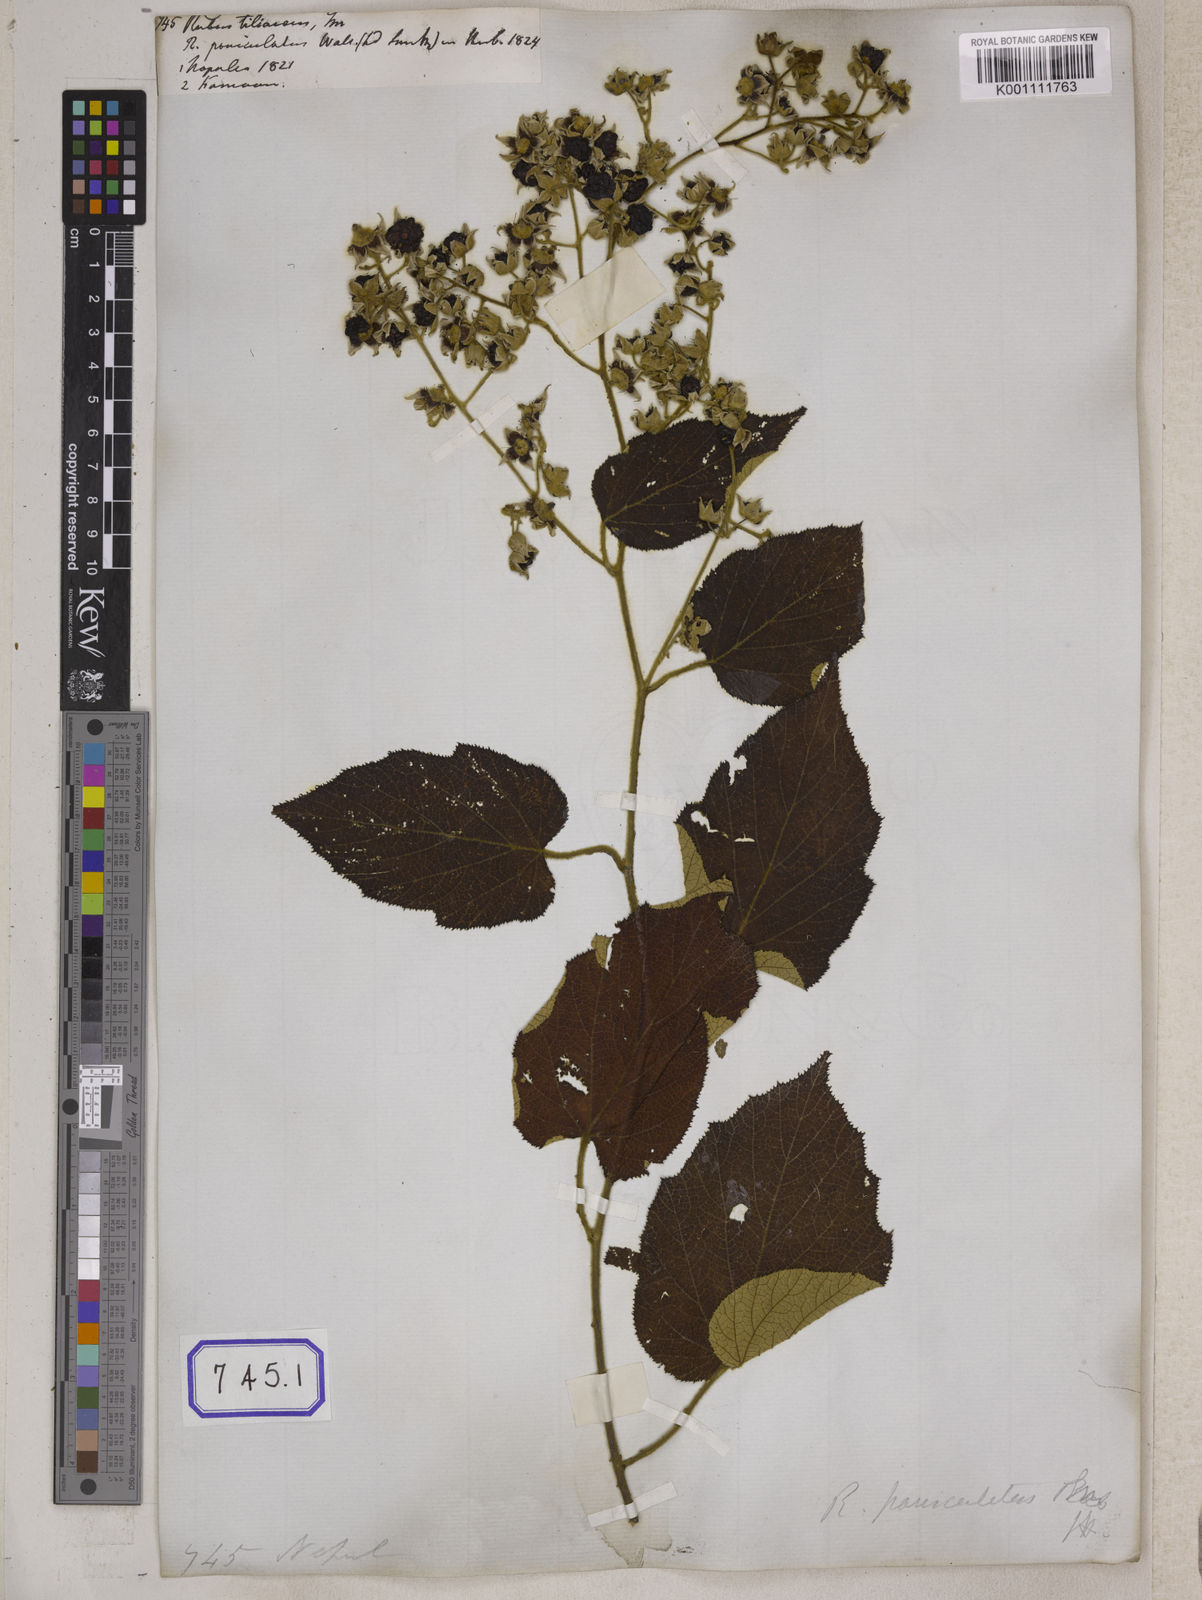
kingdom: Plantae
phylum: Tracheophyta
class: Magnoliopsida
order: Rosales
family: Rosaceae
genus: Rubus
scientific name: Rubus paniculatus
